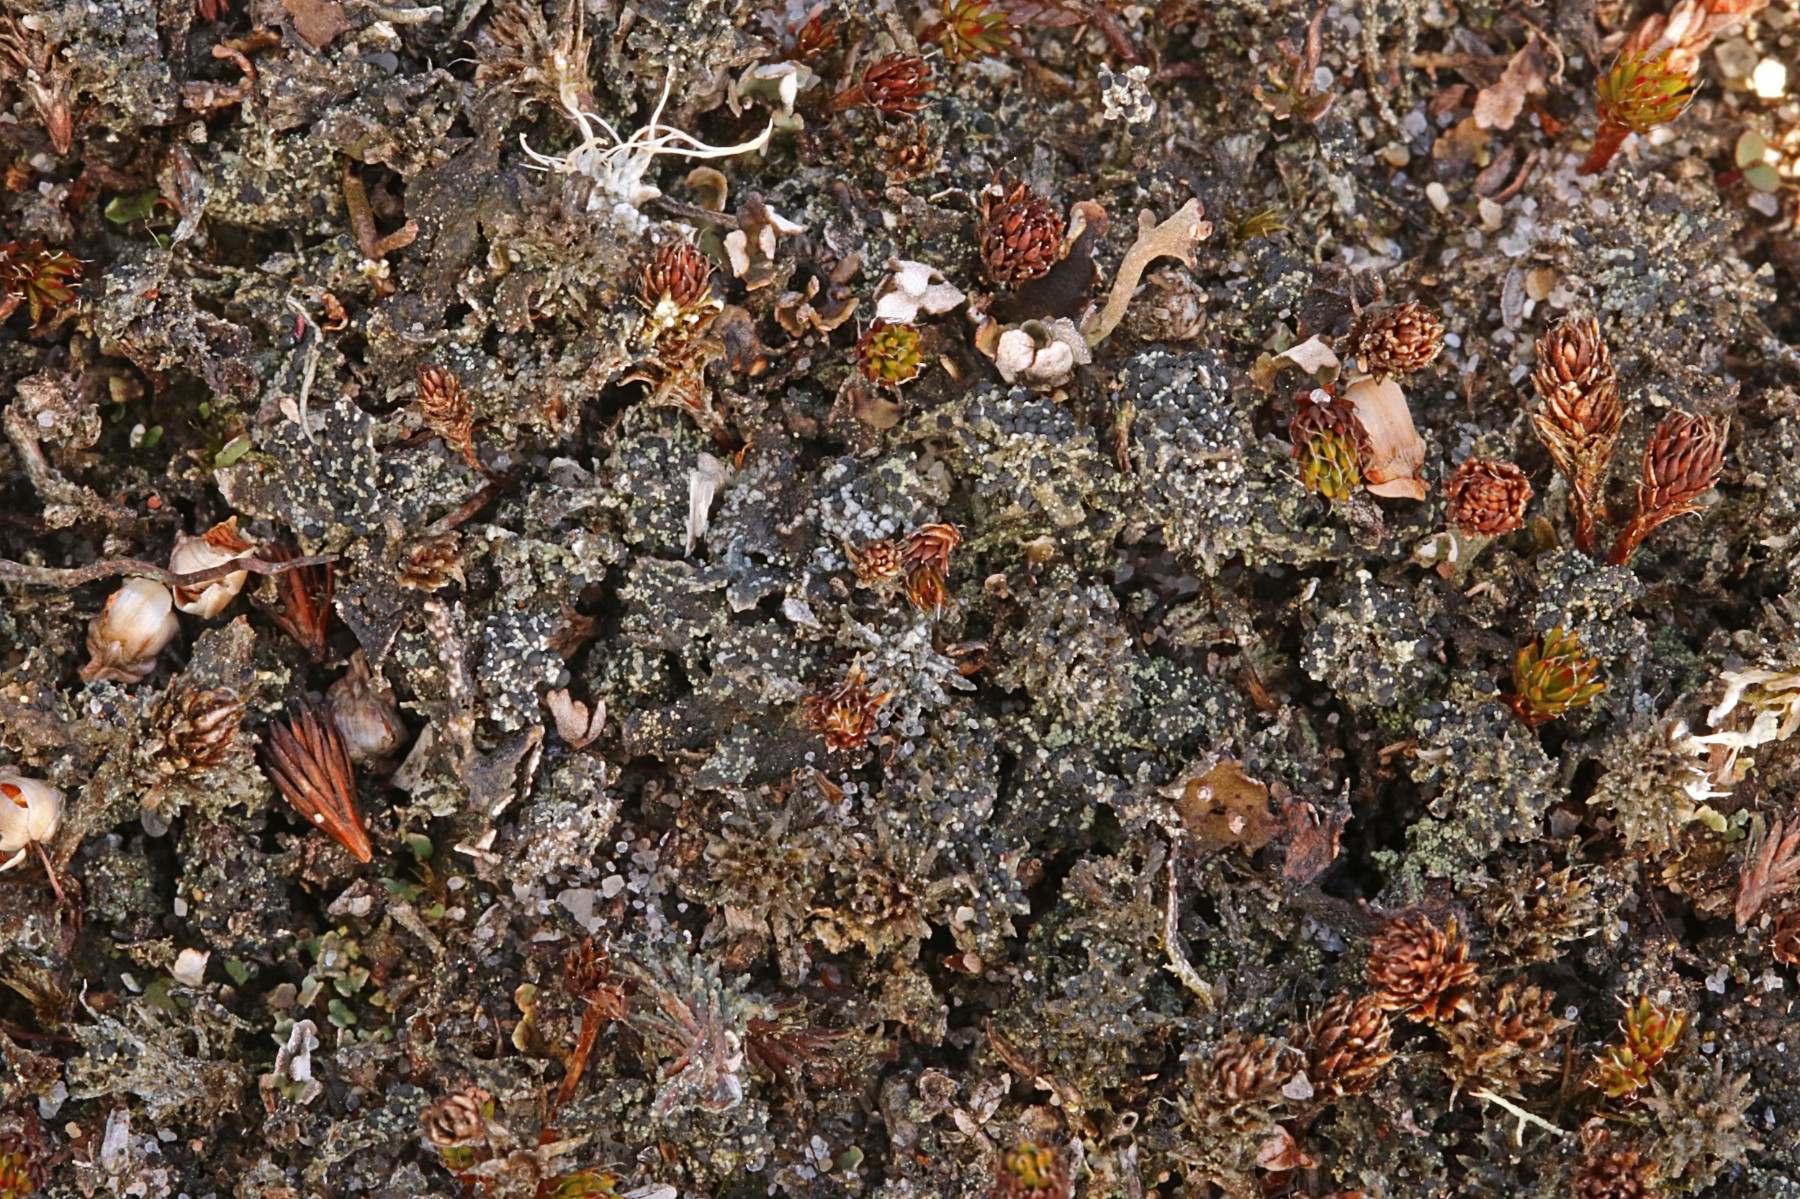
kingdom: Fungi
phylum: Ascomycota
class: Lecanoromycetes
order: Lecanorales
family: Byssolomataceae
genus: Micarea
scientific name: Micarea lignaria
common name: tørve-knaplav
